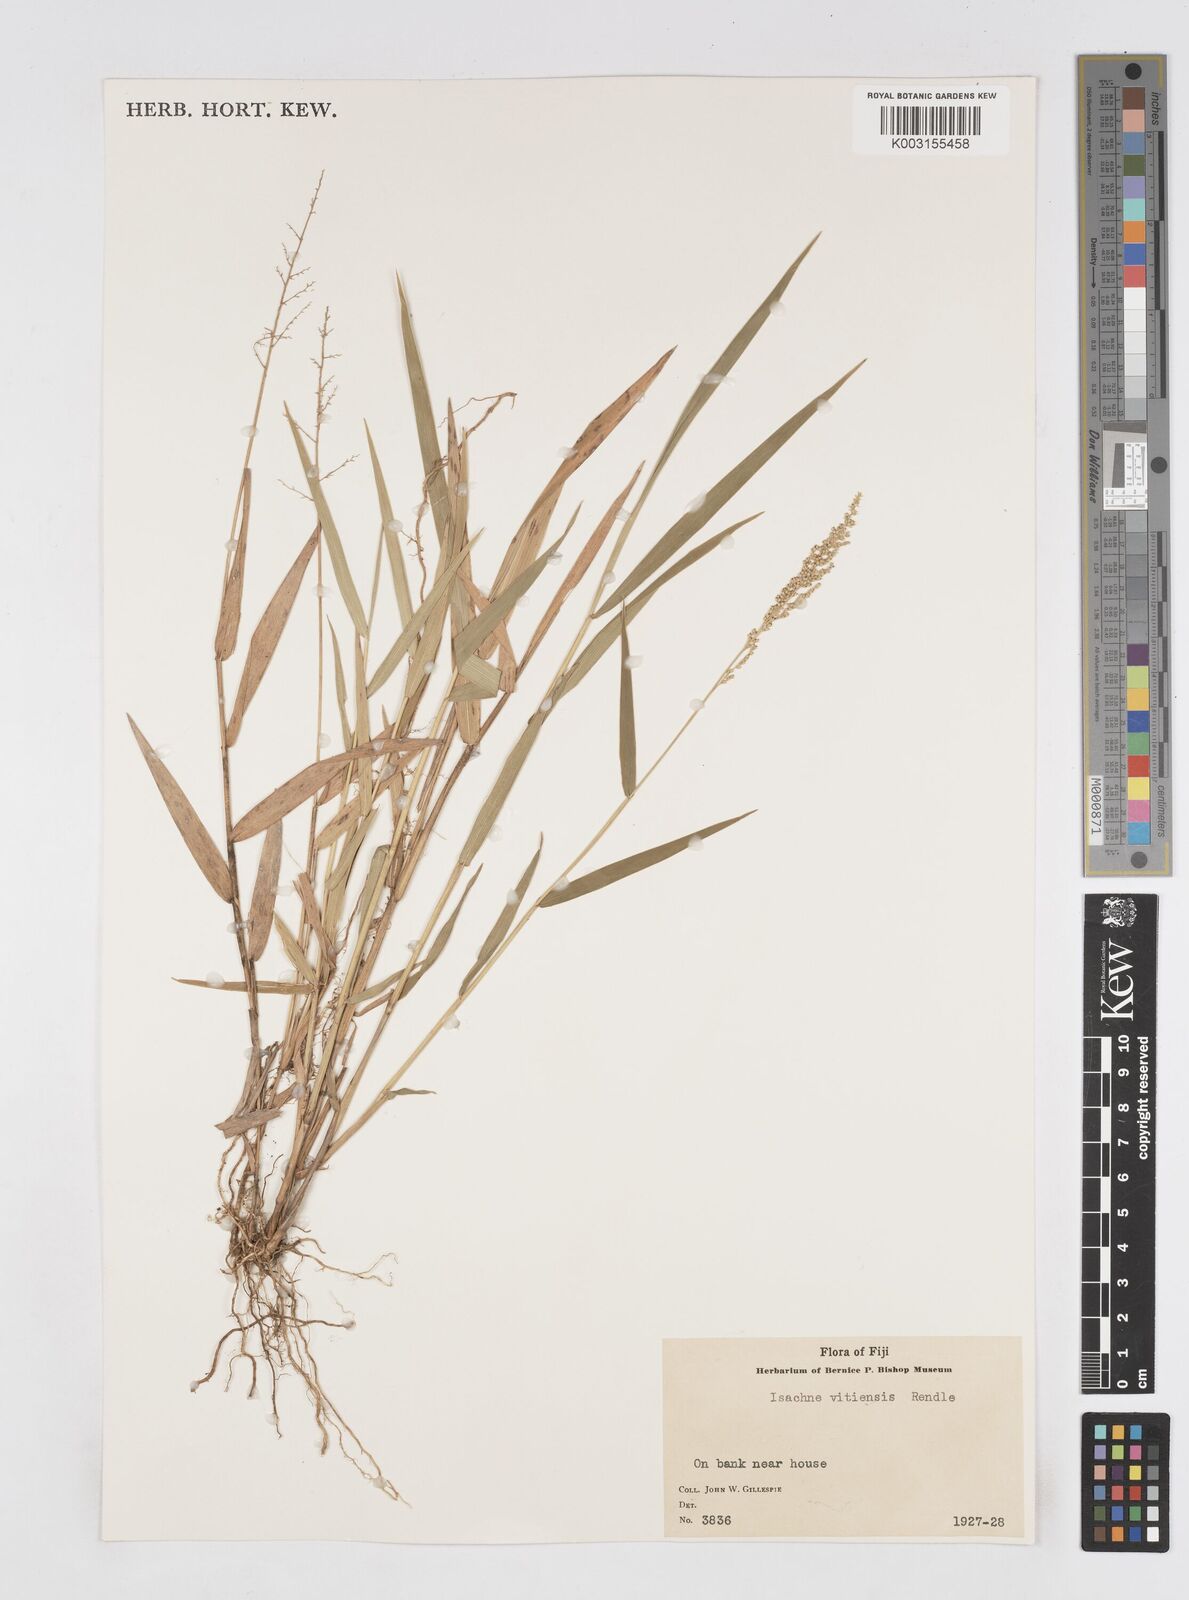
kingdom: Plantae
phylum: Tracheophyta
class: Liliopsida
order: Poales
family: Poaceae
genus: Isachne
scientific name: Isachne vitiensis
